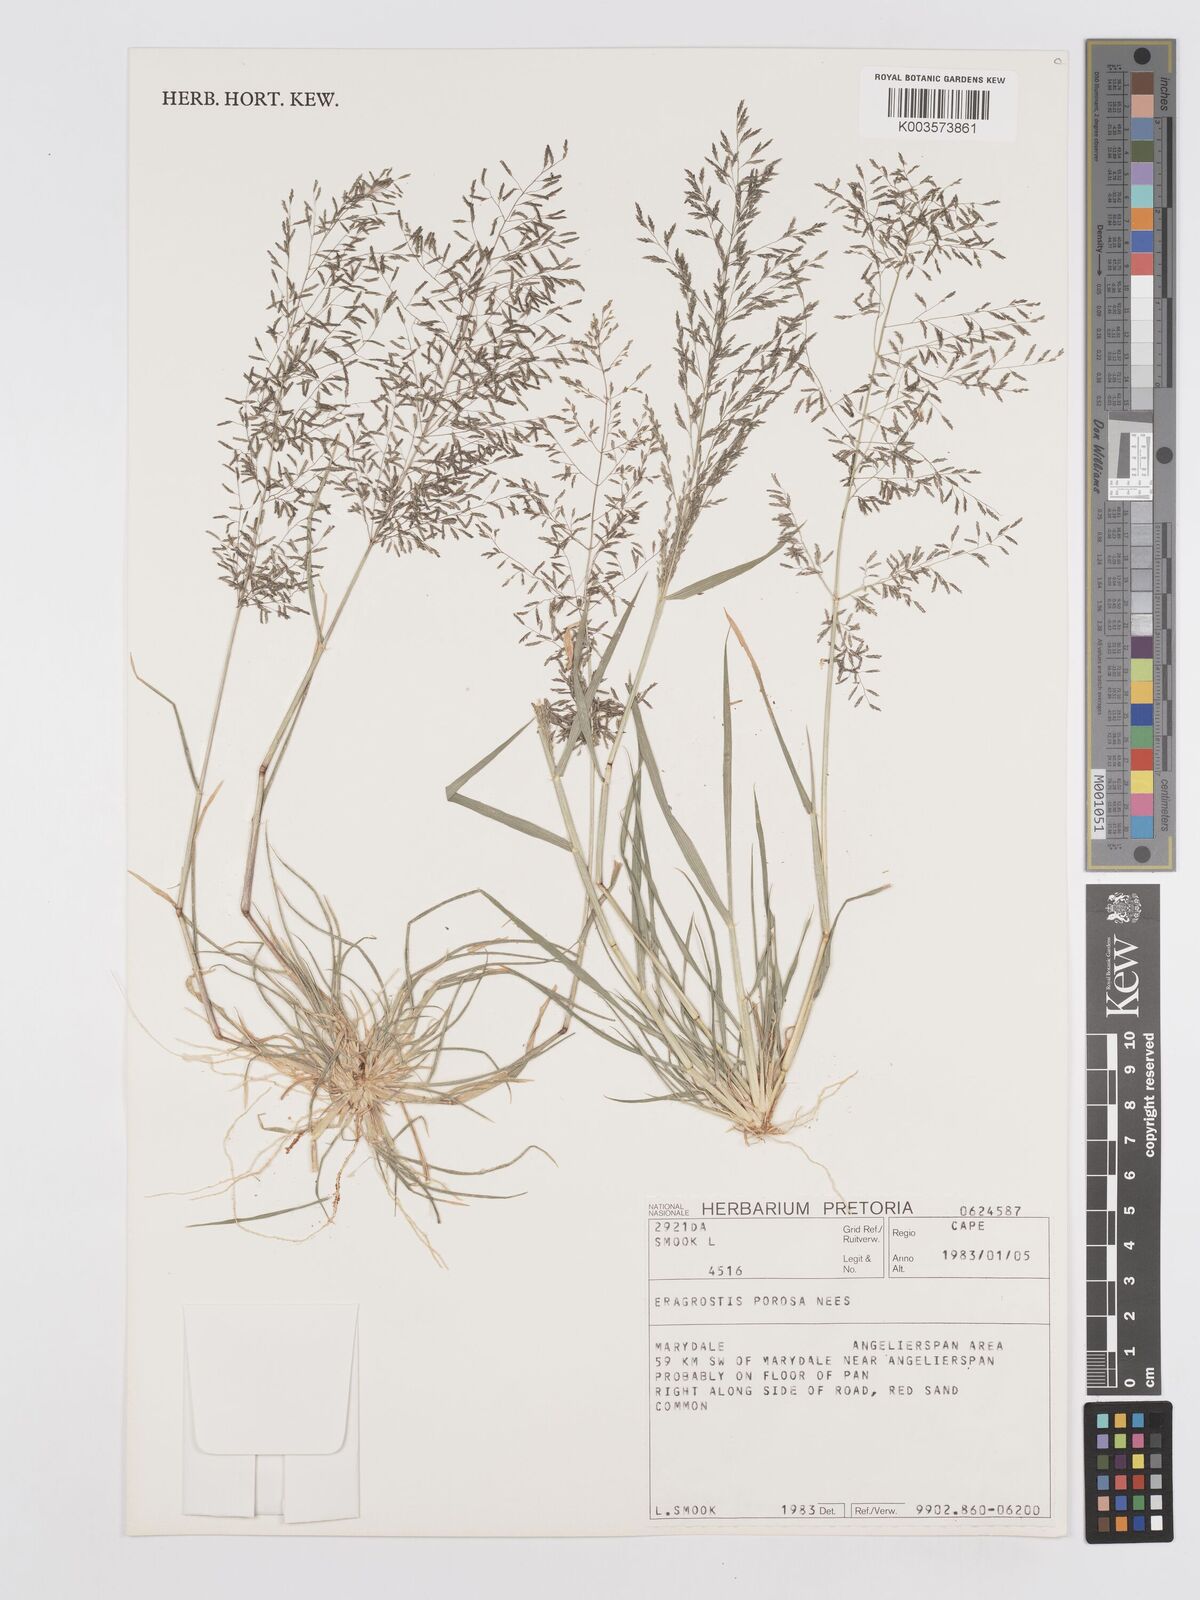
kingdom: Plantae
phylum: Tracheophyta
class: Liliopsida
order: Poales
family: Poaceae
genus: Eragrostis
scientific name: Eragrostis porosa
